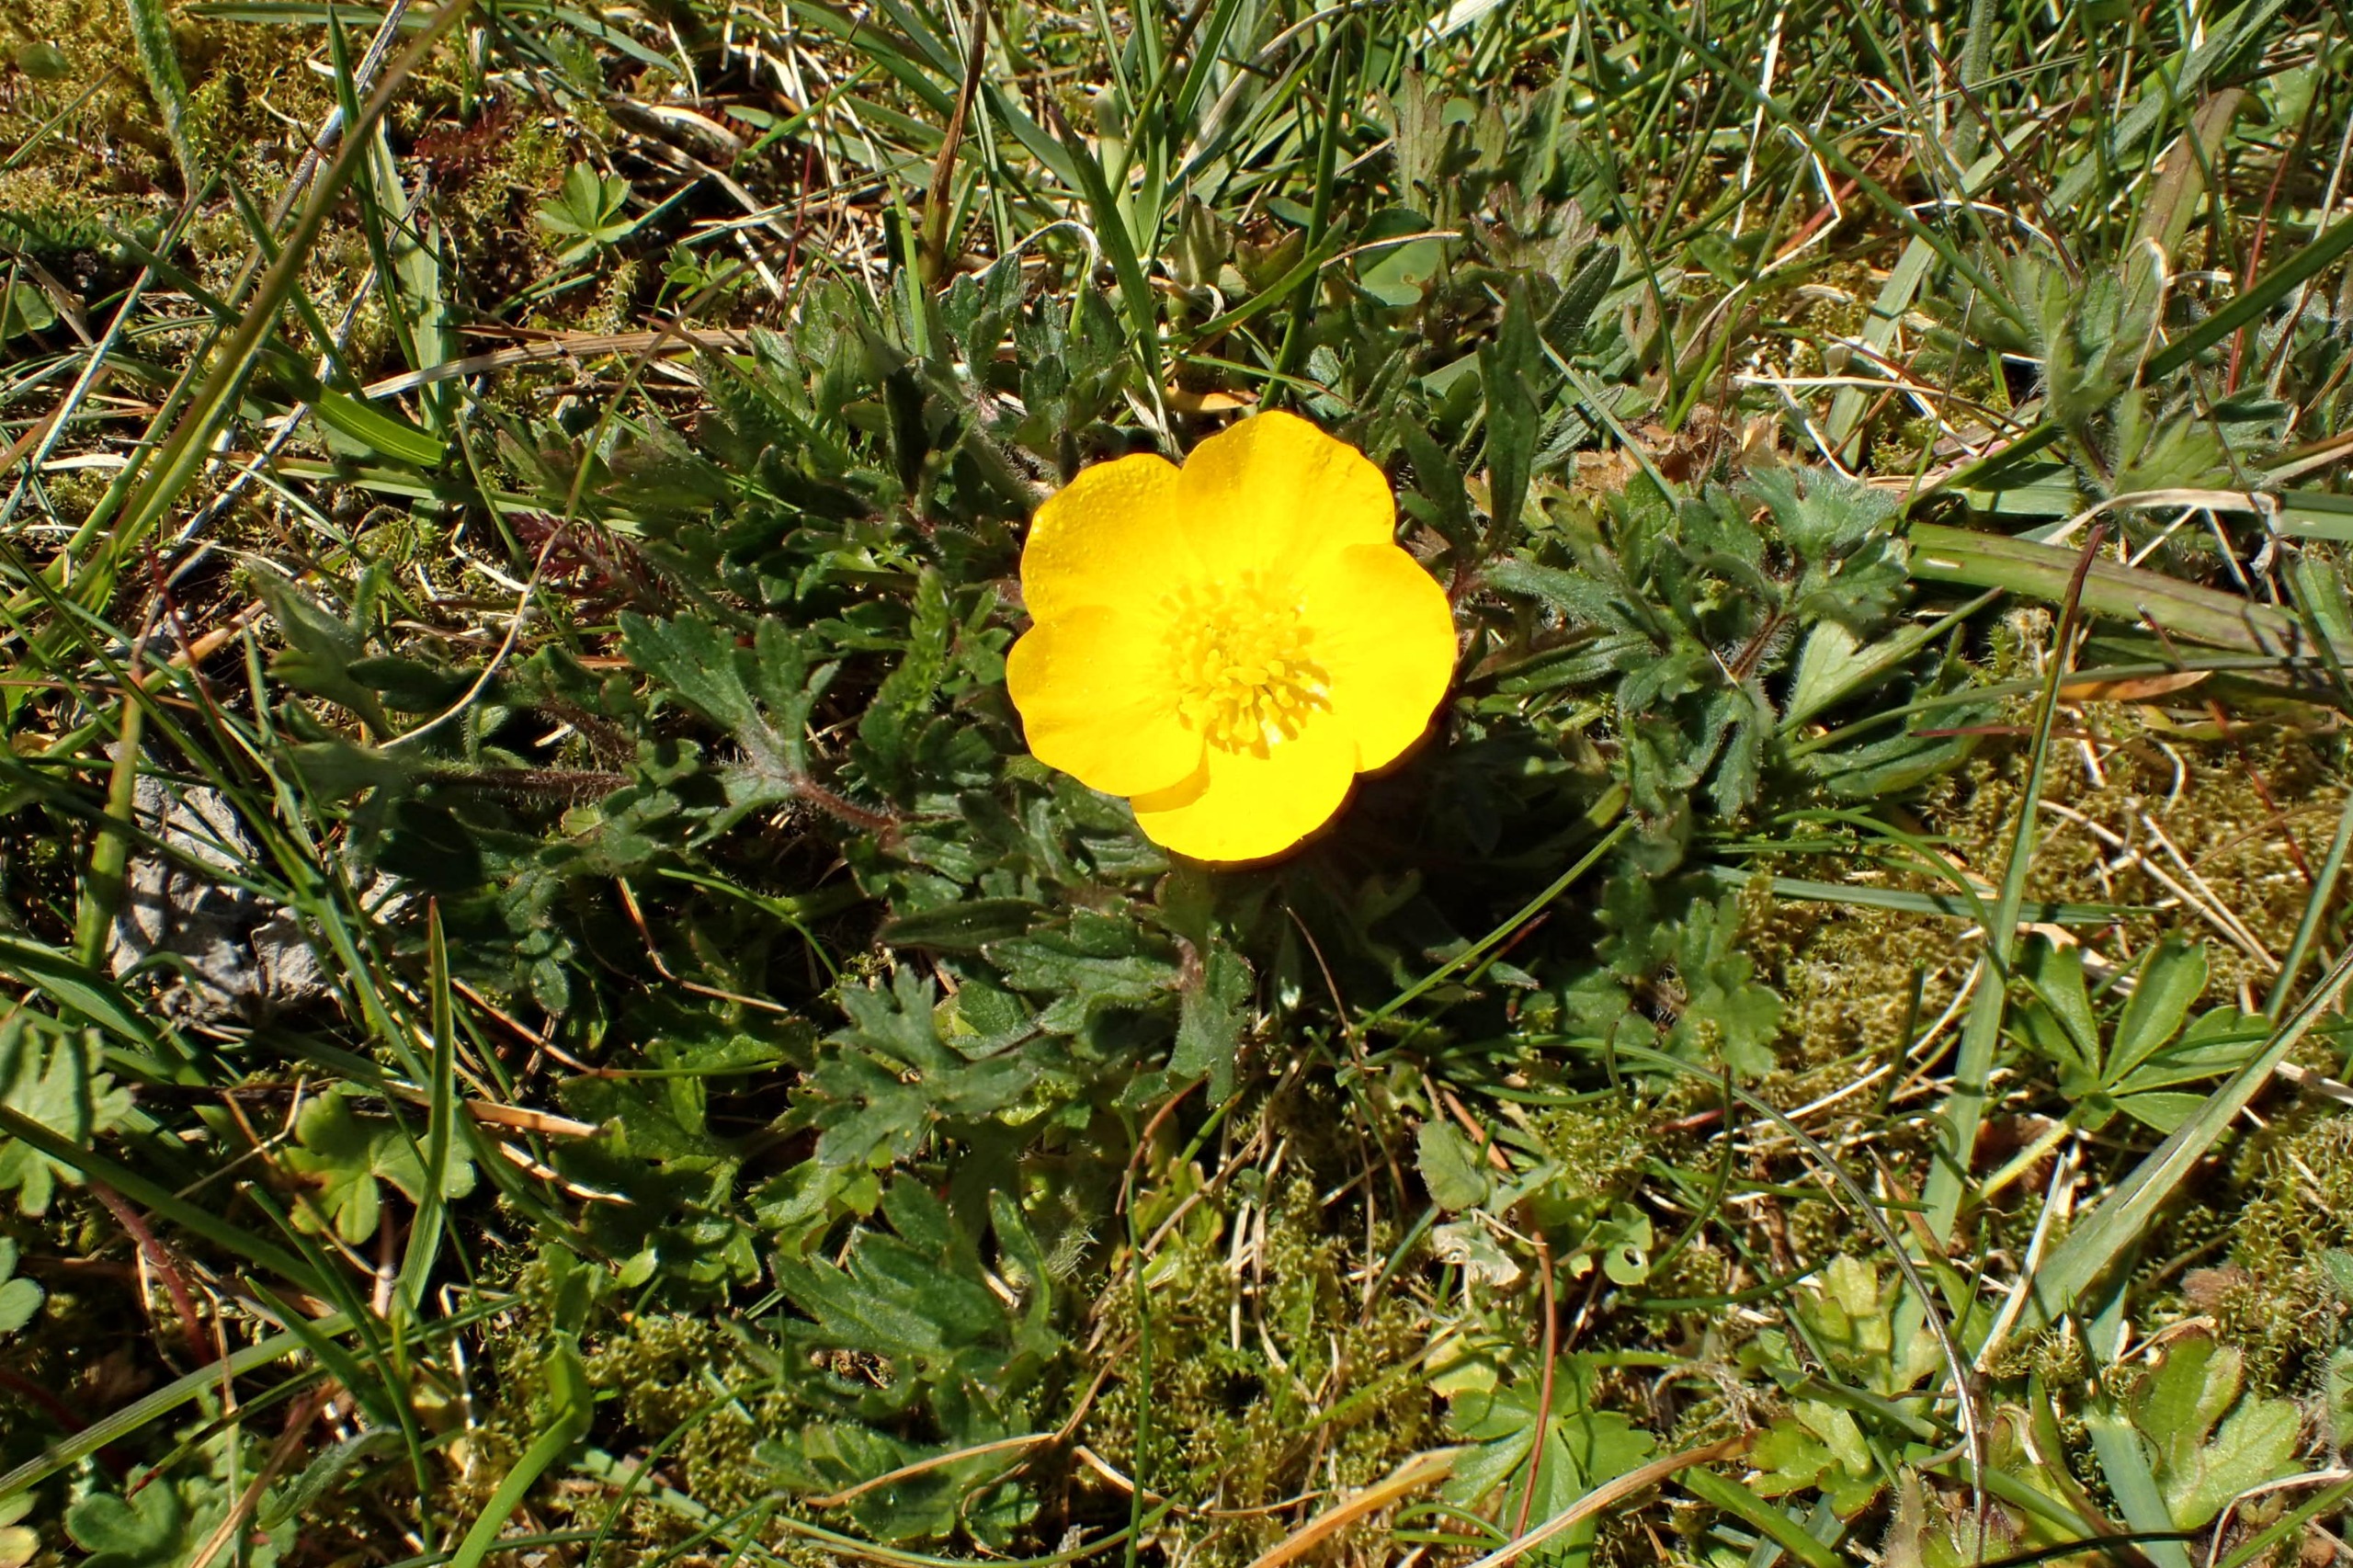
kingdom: Plantae
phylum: Tracheophyta
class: Magnoliopsida
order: Ranunculales
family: Ranunculaceae
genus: Ranunculus
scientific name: Ranunculus bulbosus
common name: Knold-ranunkel
